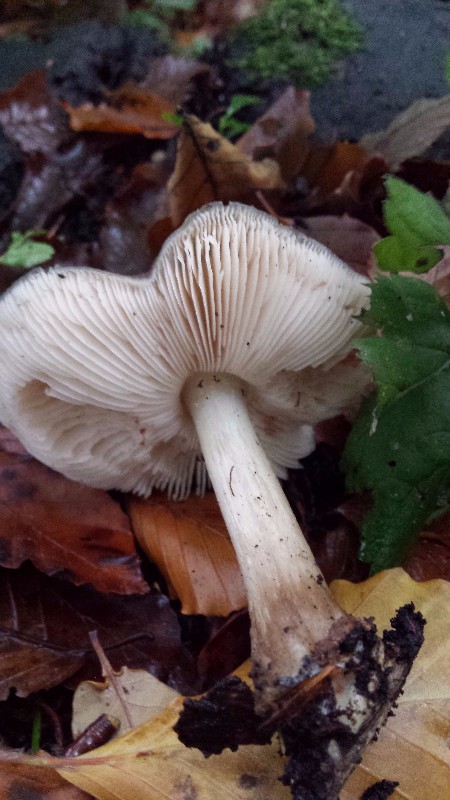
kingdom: Fungi
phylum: Basidiomycota
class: Agaricomycetes
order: Agaricales
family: Pluteaceae
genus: Pluteus
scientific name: Pluteus cervinus
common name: sodfarvet skærmhat
